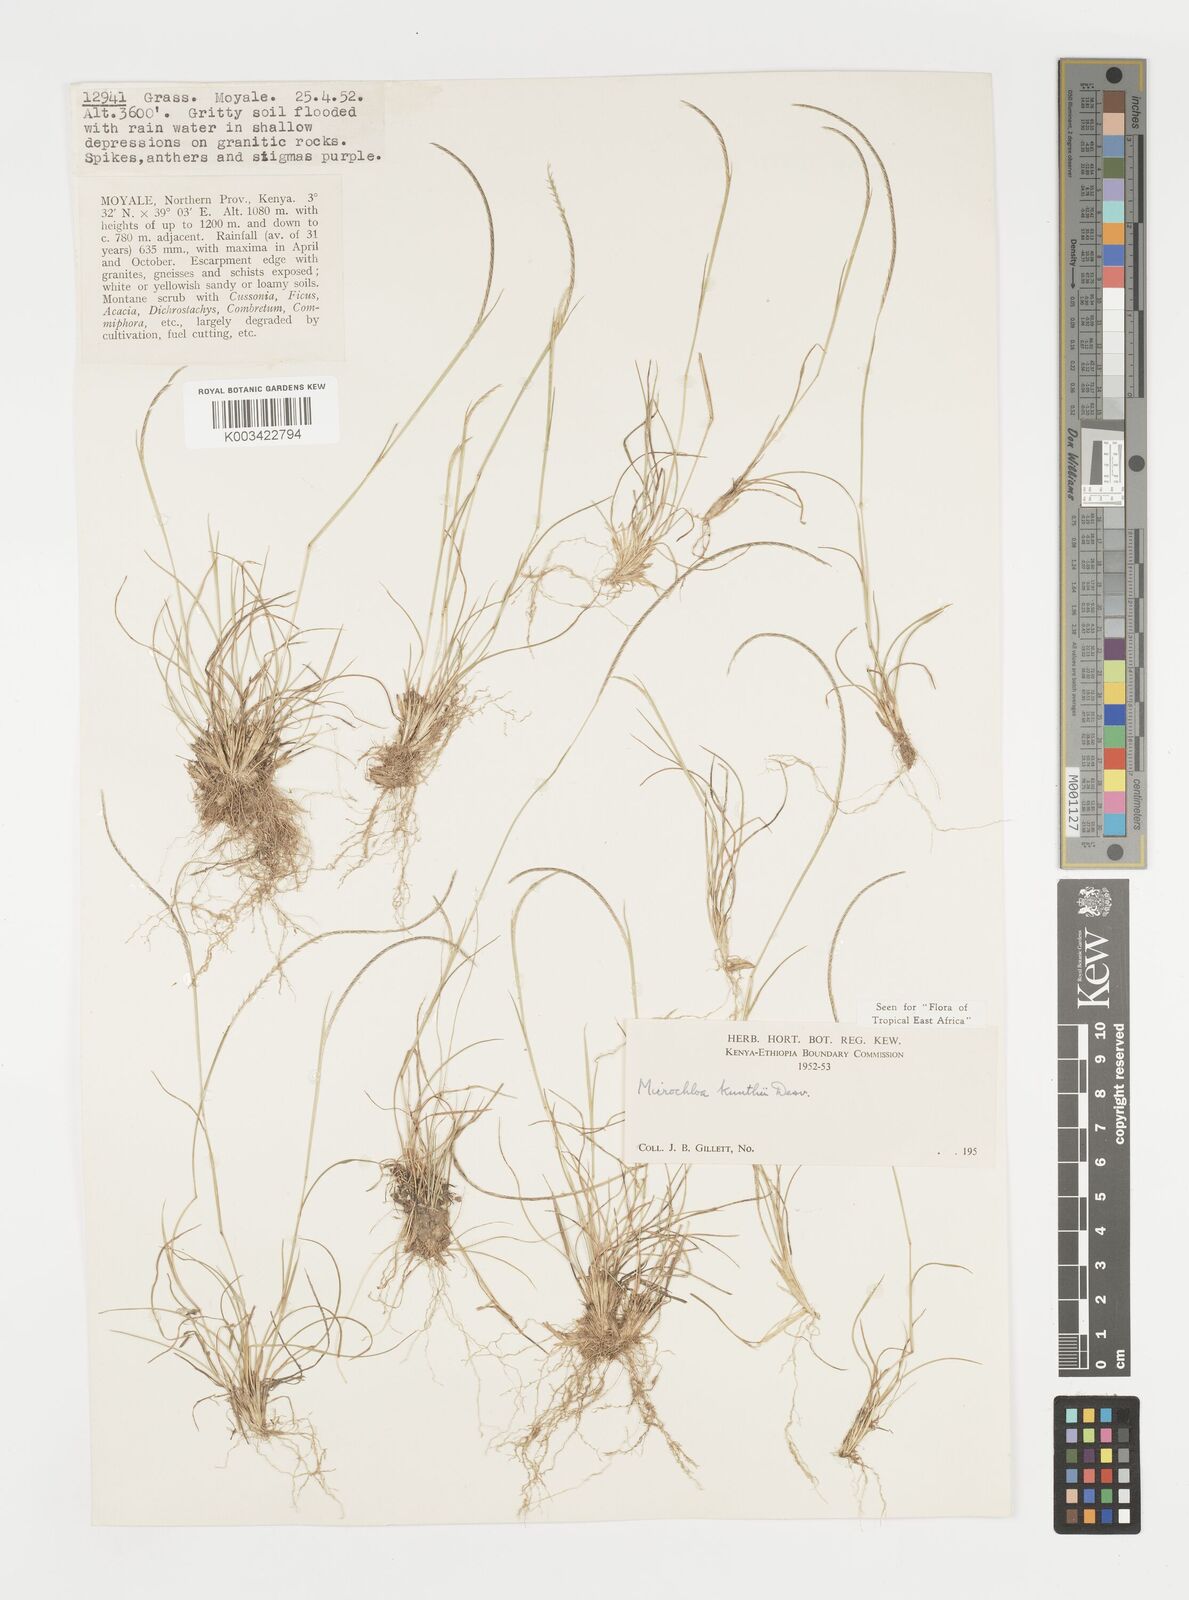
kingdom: Plantae
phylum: Tracheophyta
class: Liliopsida
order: Poales
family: Poaceae
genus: Microchloa
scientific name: Microchloa kunthii
